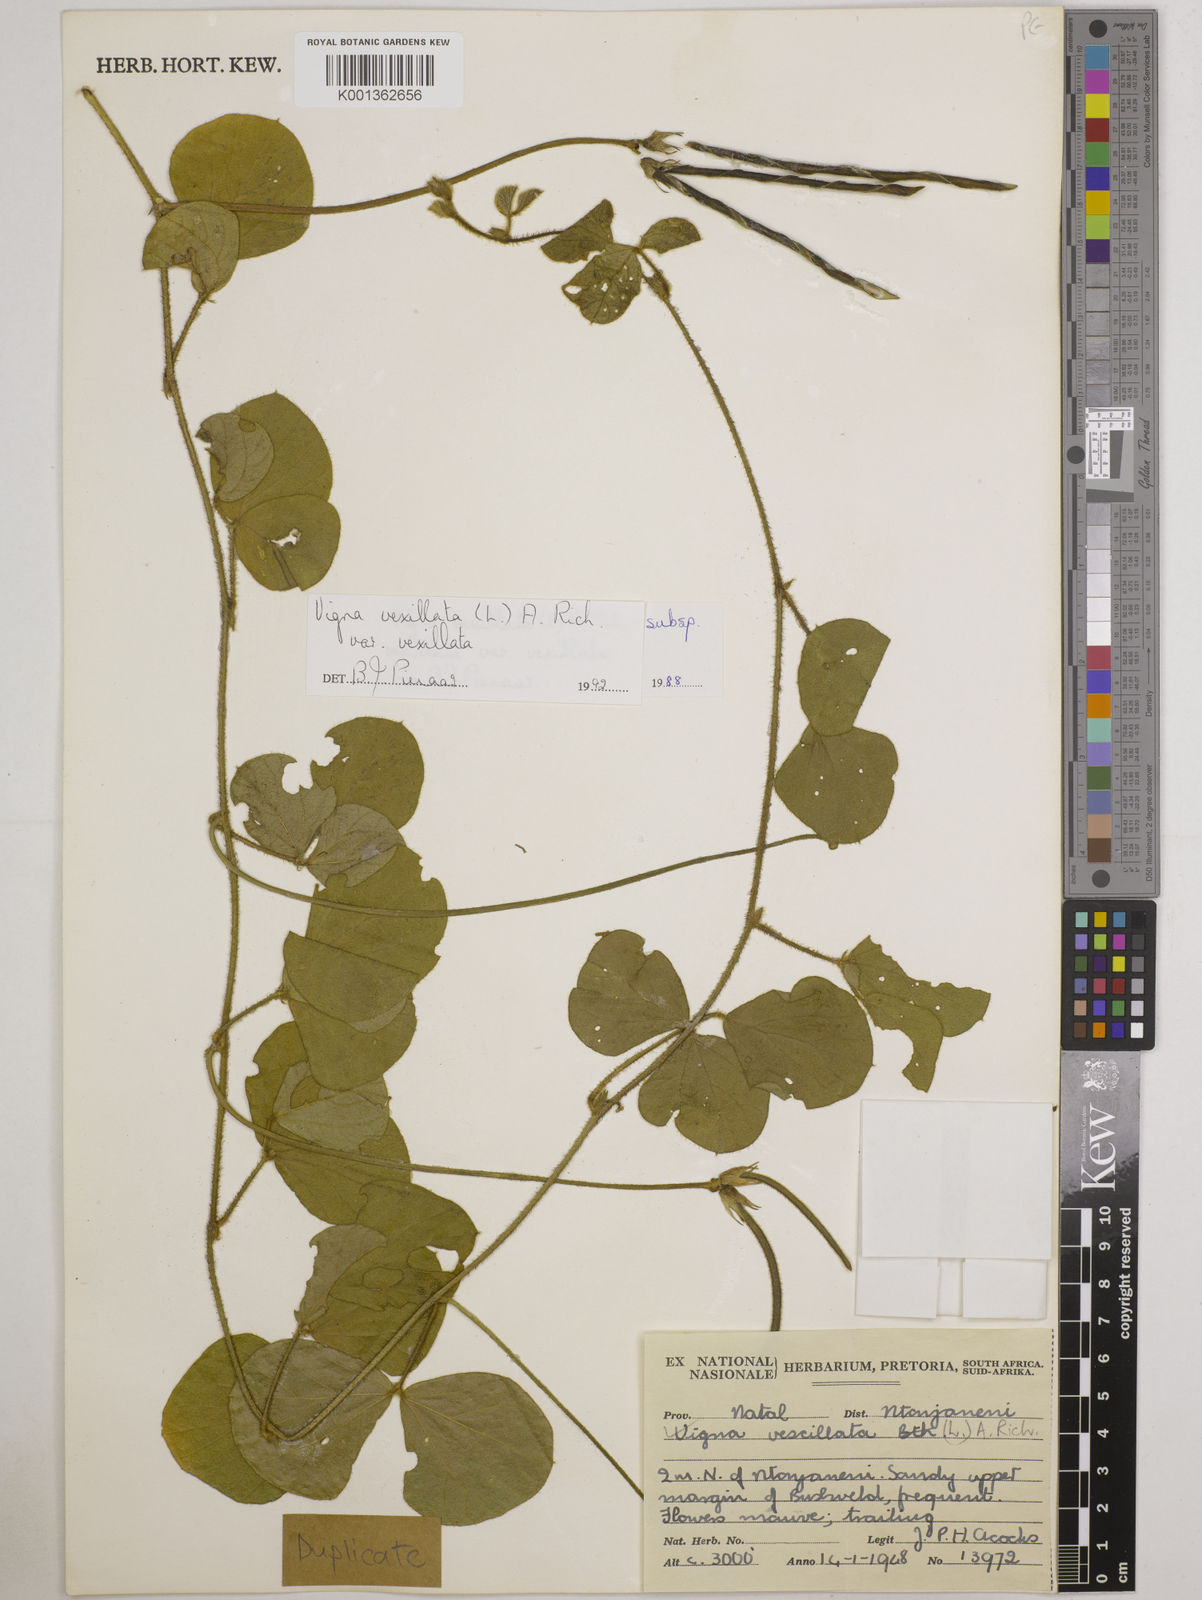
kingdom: Plantae
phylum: Tracheophyta
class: Magnoliopsida
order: Fabales
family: Fabaceae
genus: Vigna
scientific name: Vigna vexillata
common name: Zombi pea
